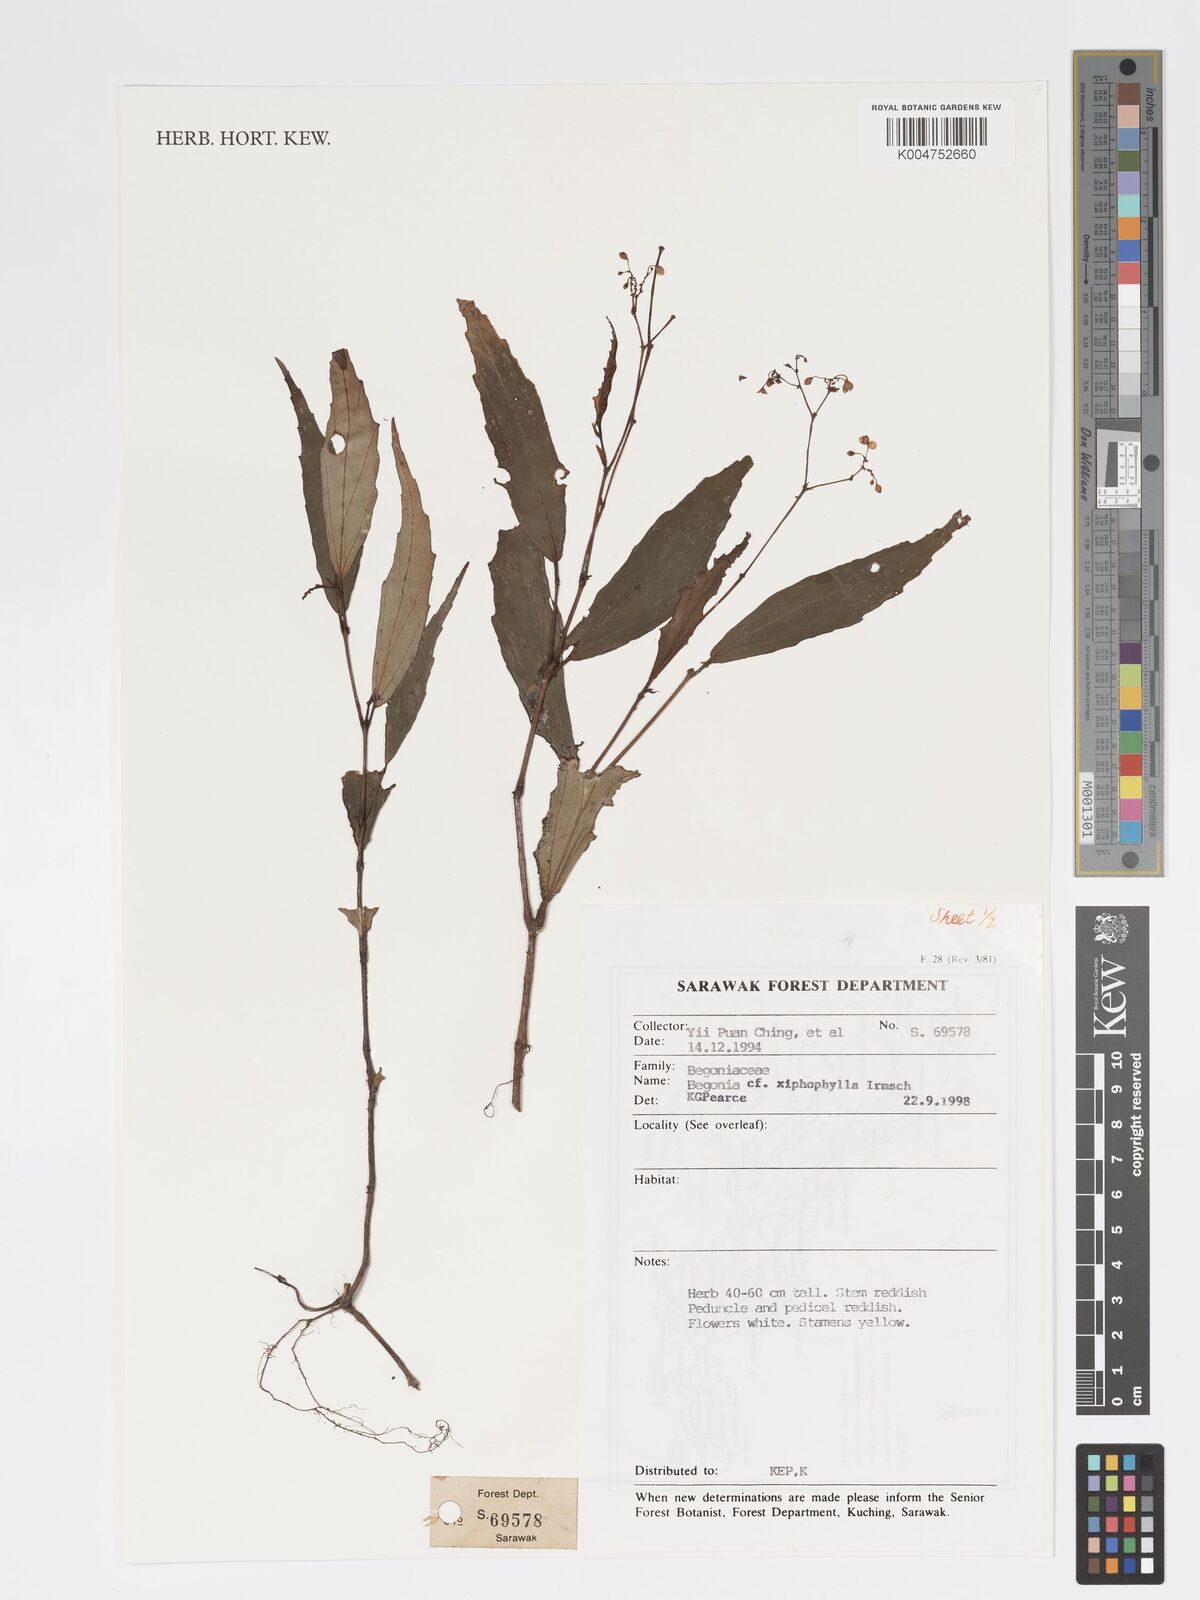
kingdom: Plantae
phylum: Tracheophyta
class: Magnoliopsida
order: Cucurbitales
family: Begoniaceae
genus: Begonia
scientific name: Begonia xiphophylla
